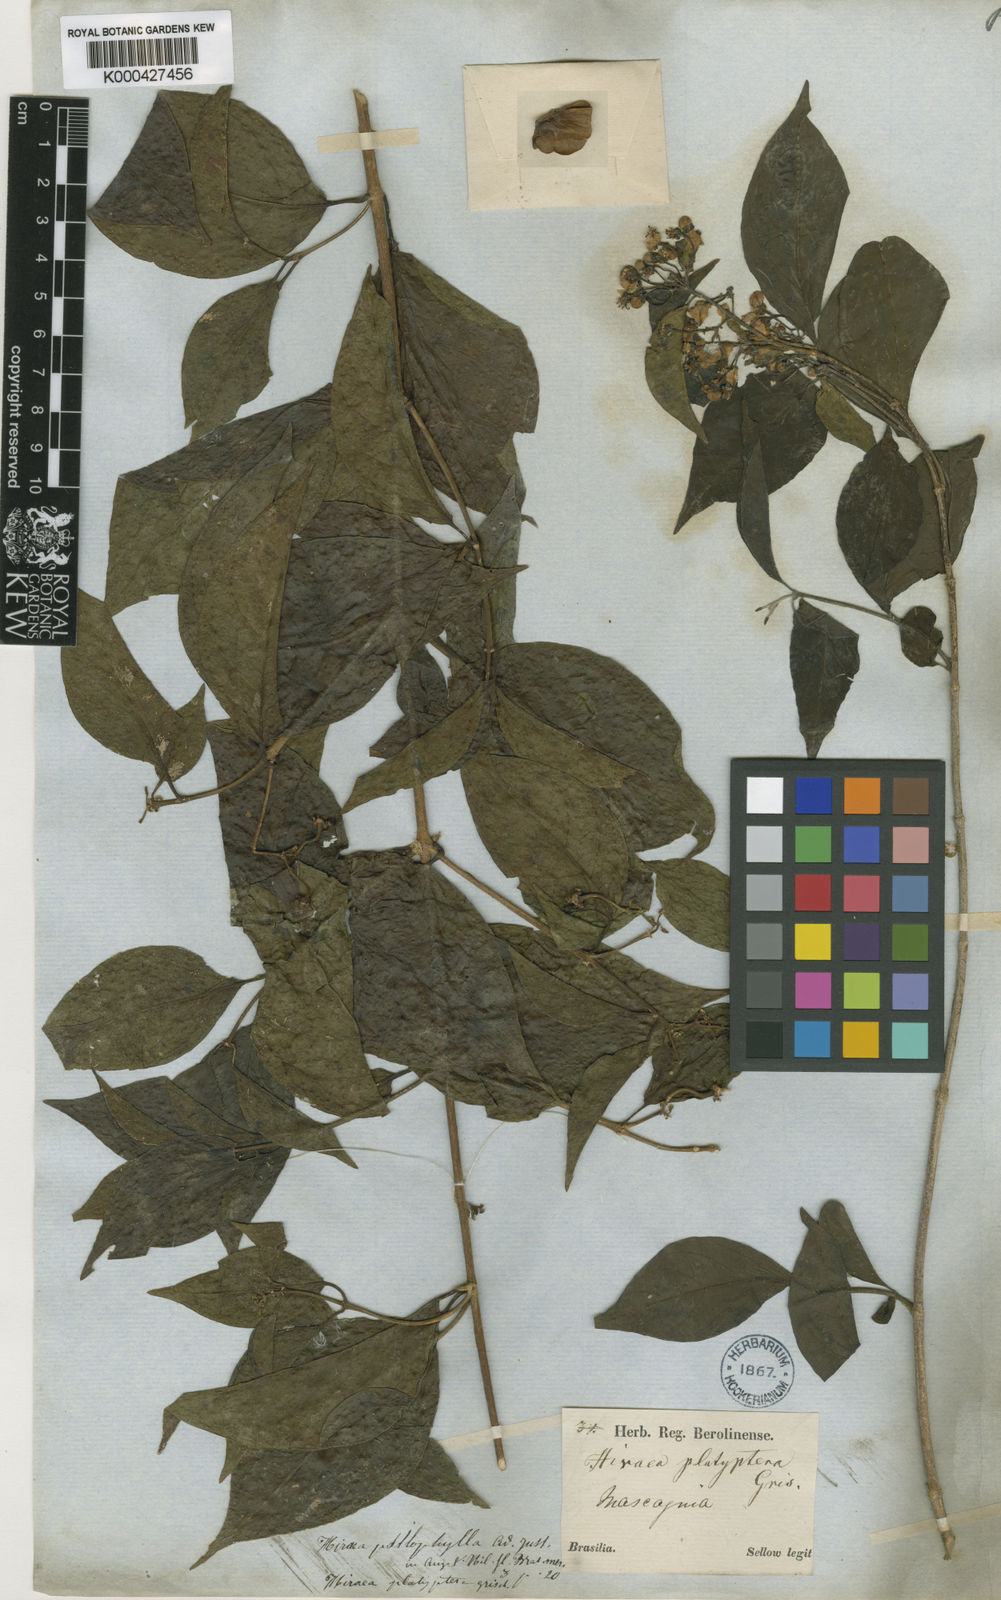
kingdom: Plantae
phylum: Tracheophyta
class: Magnoliopsida
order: Malpighiales
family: Malpighiaceae
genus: Callaeum
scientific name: Callaeum psilophyllum
